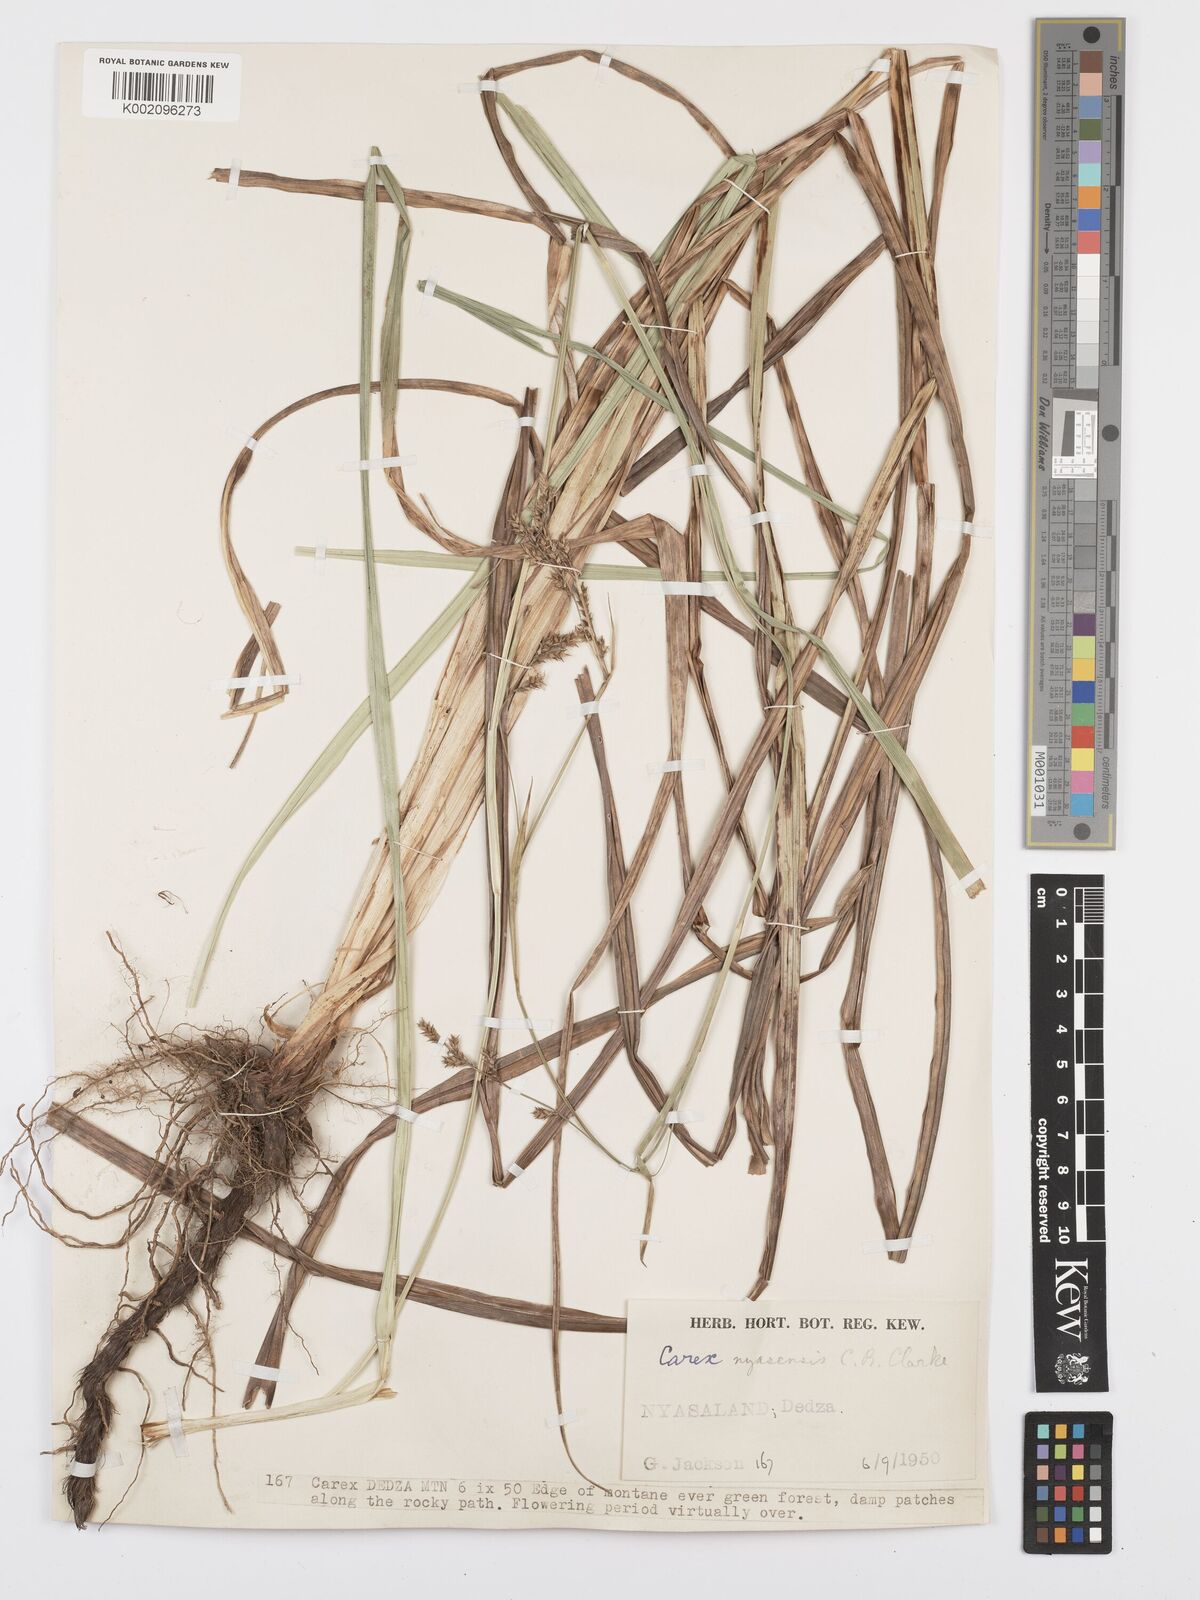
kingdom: Plantae
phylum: Tracheophyta
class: Liliopsida
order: Poales
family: Cyperaceae
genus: Carex
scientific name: Carex spicatopaniculata
